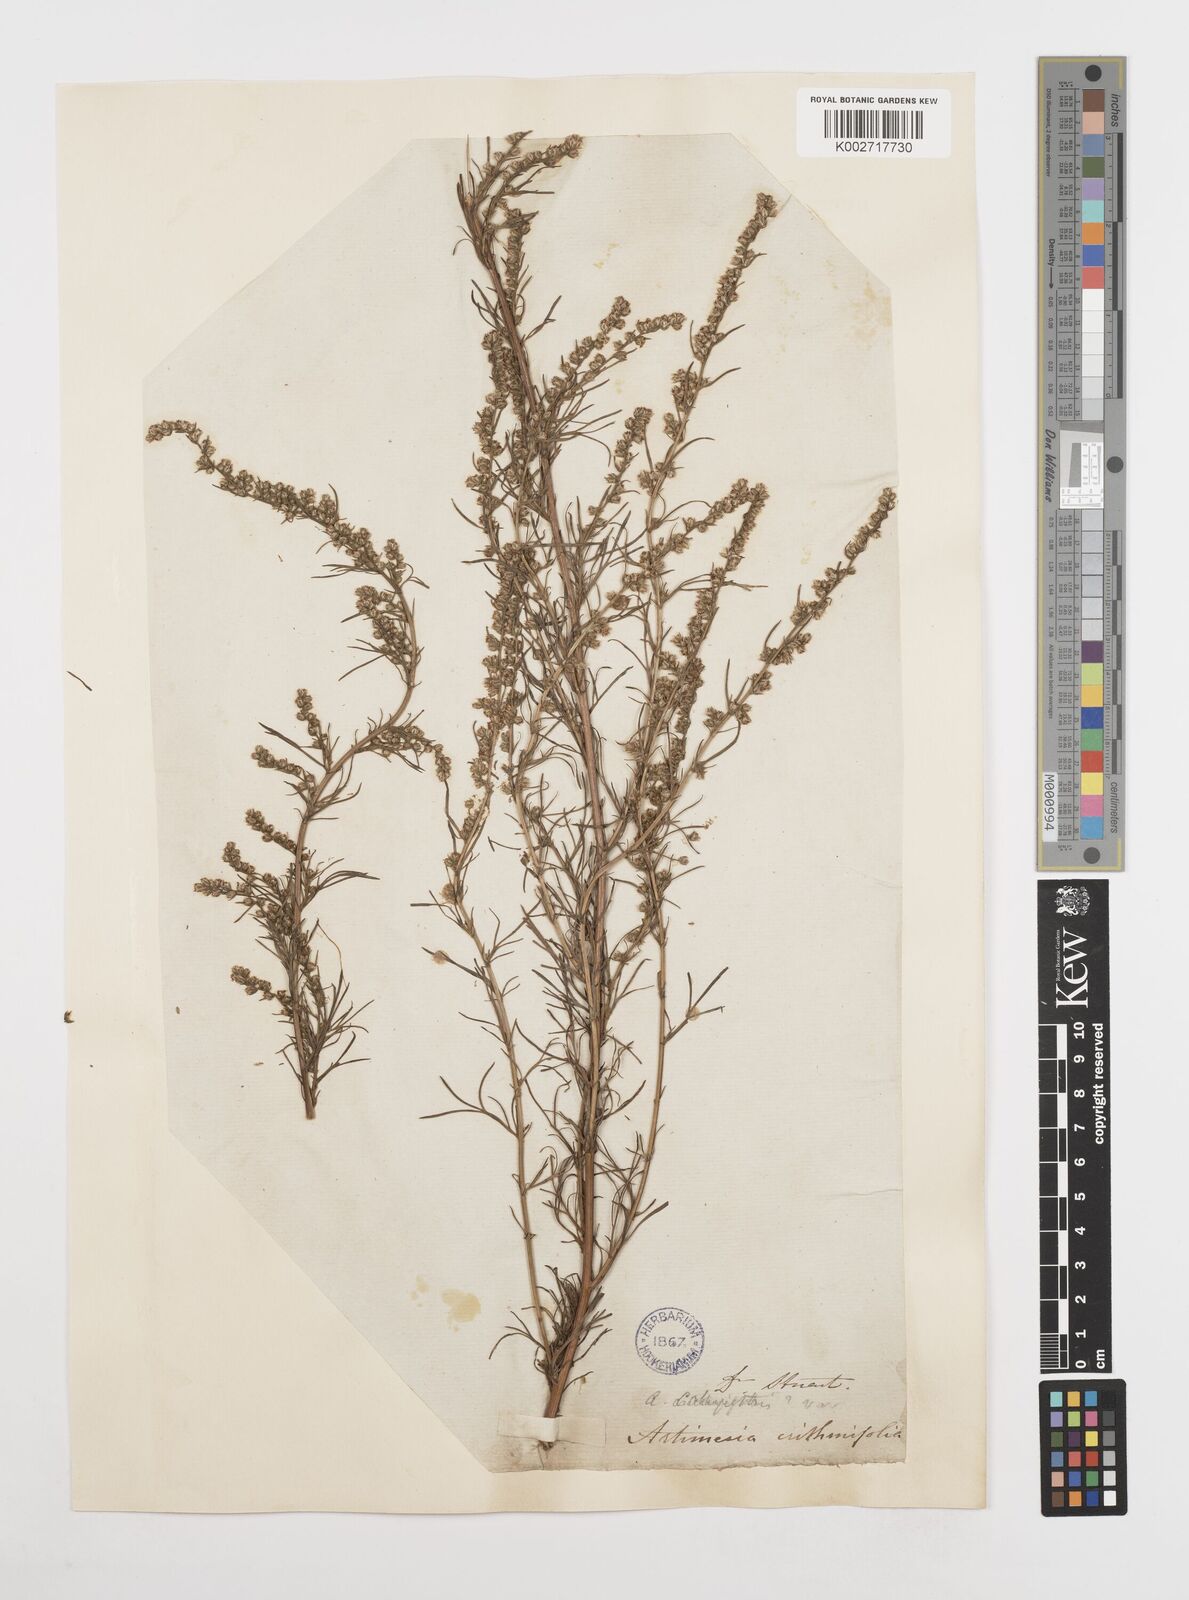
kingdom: Plantae
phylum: Tracheophyta
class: Magnoliopsida
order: Asterales
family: Asteraceae
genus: Artemisia
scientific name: Artemisia campestris
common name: Field wormwood
